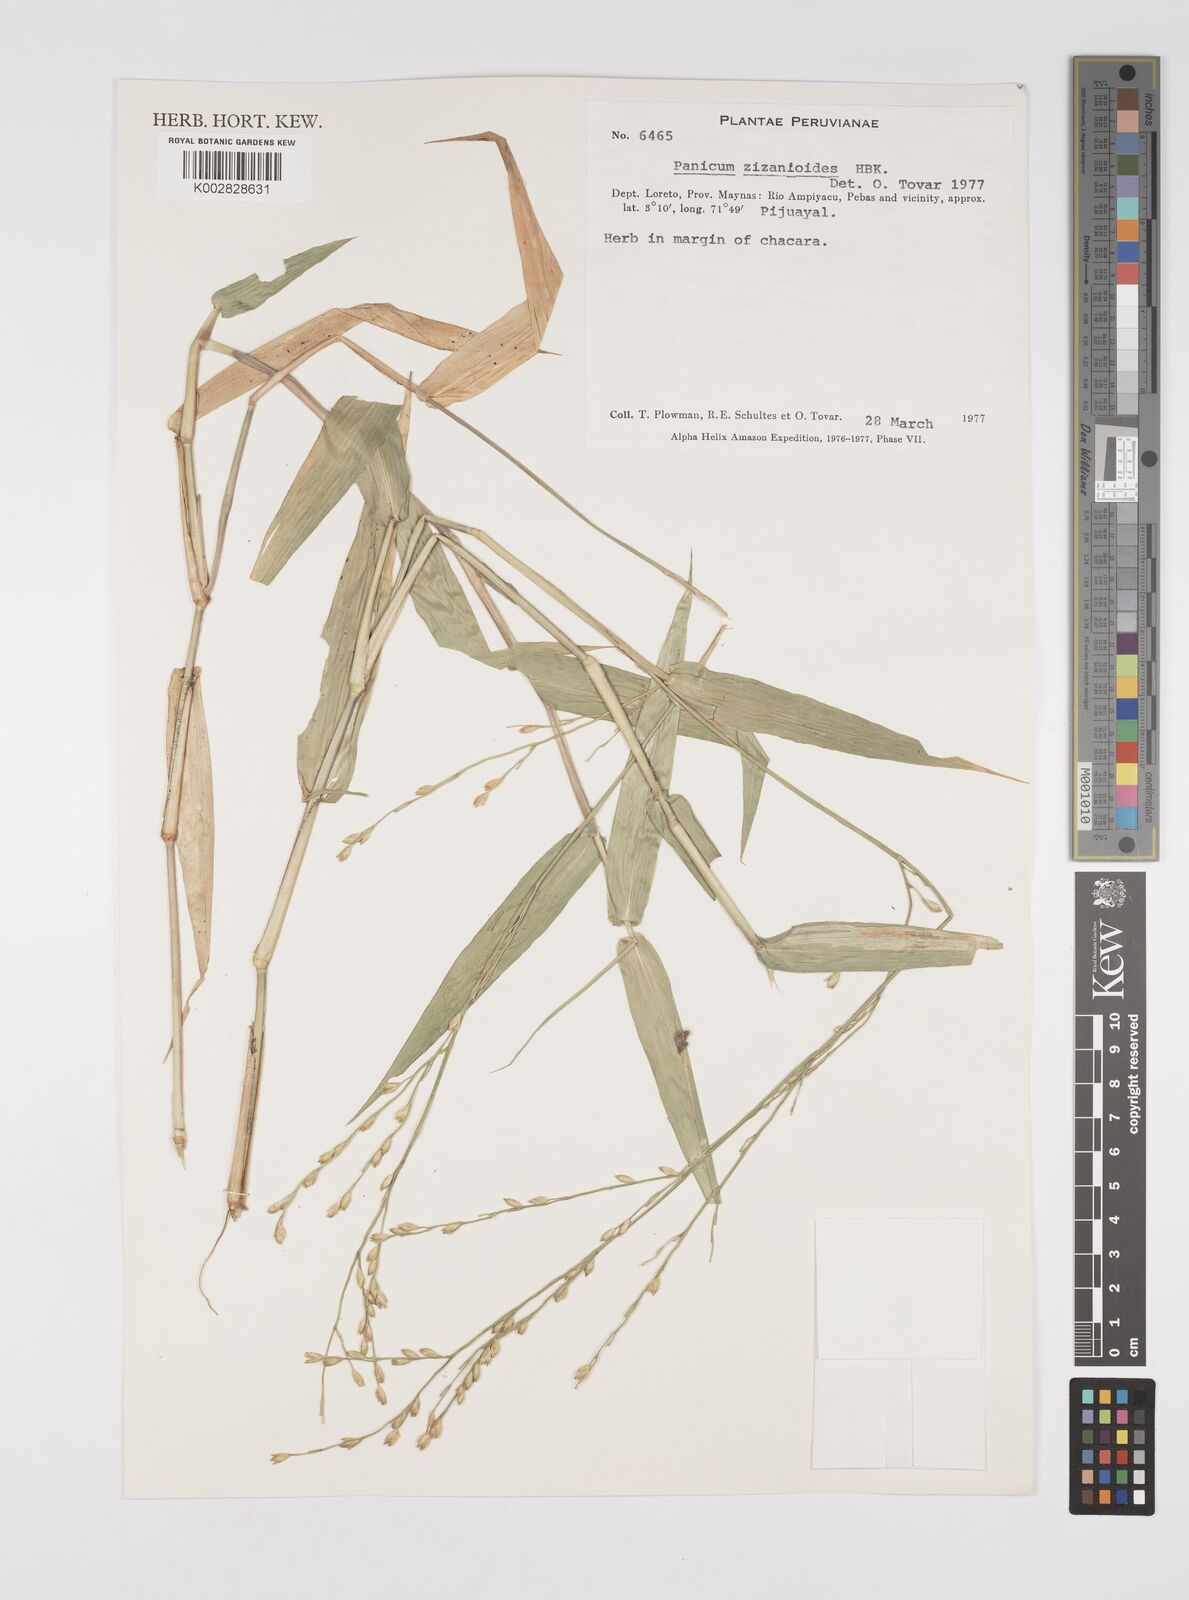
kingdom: Plantae
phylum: Tracheophyta
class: Liliopsida
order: Poales
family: Poaceae
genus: Acroceras
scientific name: Acroceras zizanioides
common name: Oat grass
